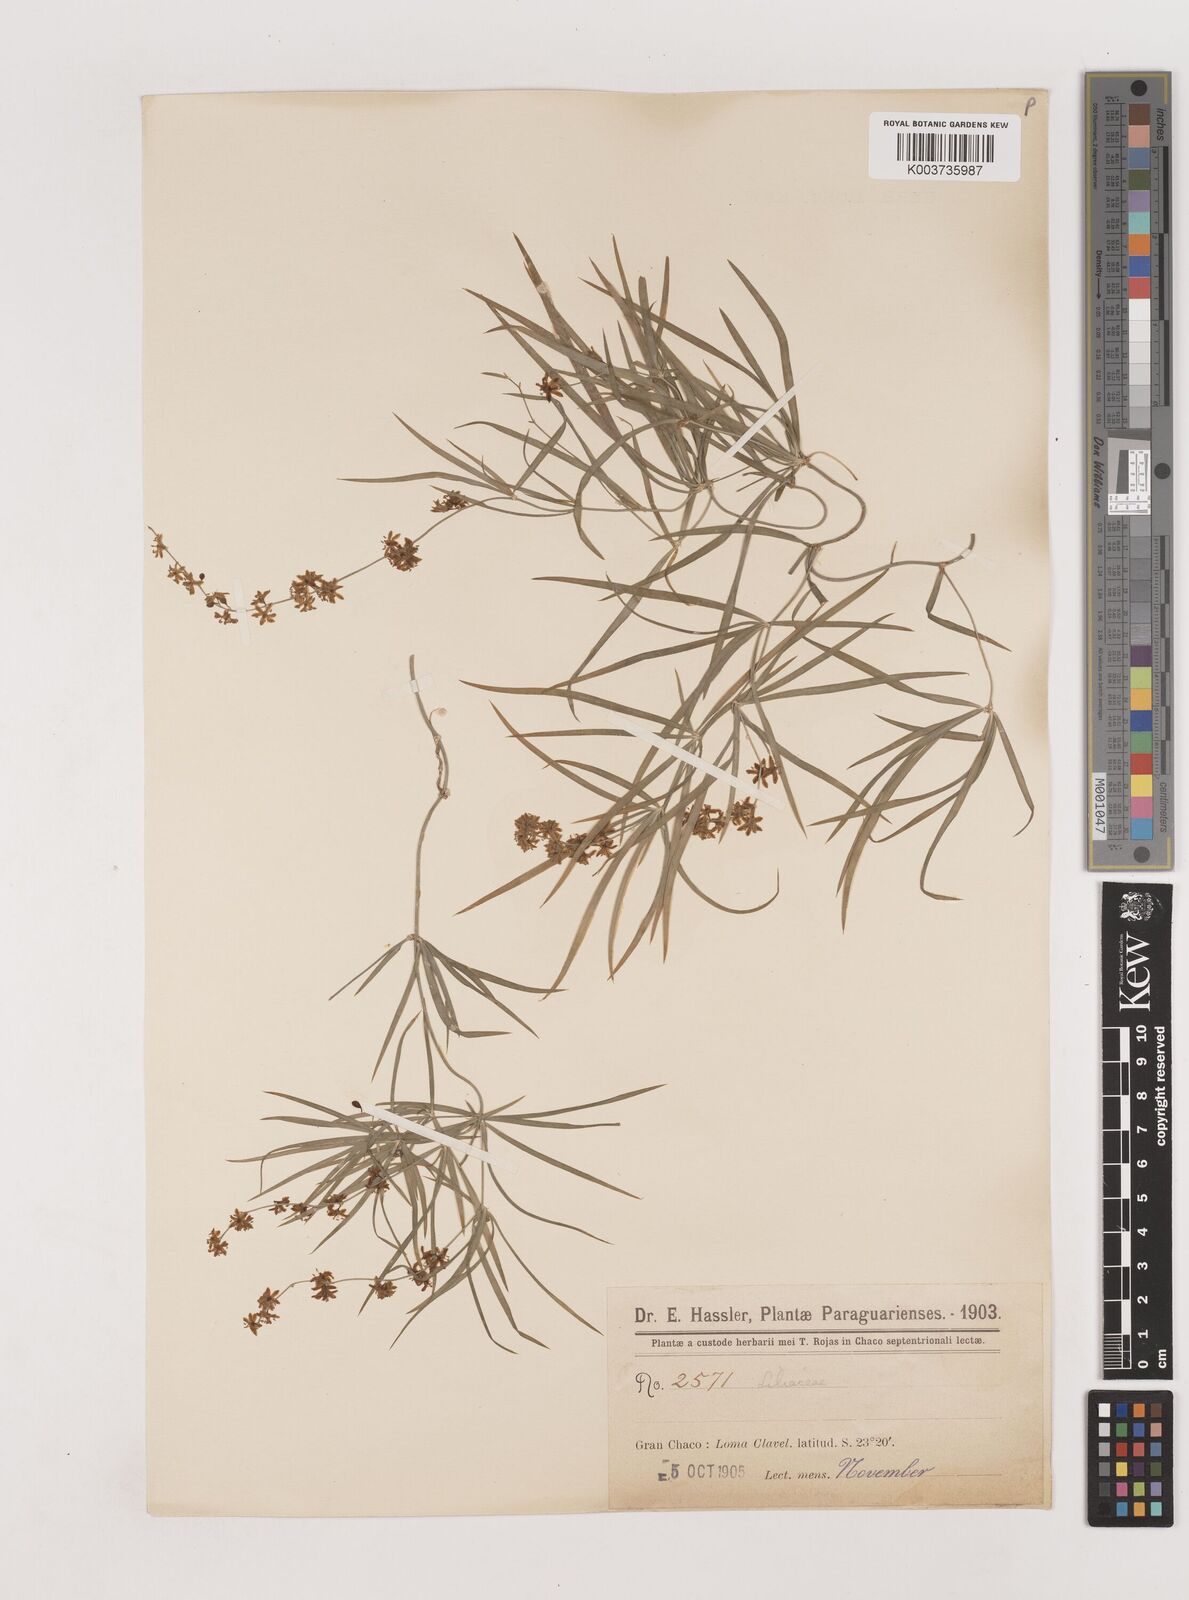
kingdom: Plantae
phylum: Tracheophyta
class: Liliopsida
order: Asparagales
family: Asparagaceae
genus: Herreria
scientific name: Herreria bonplandii
